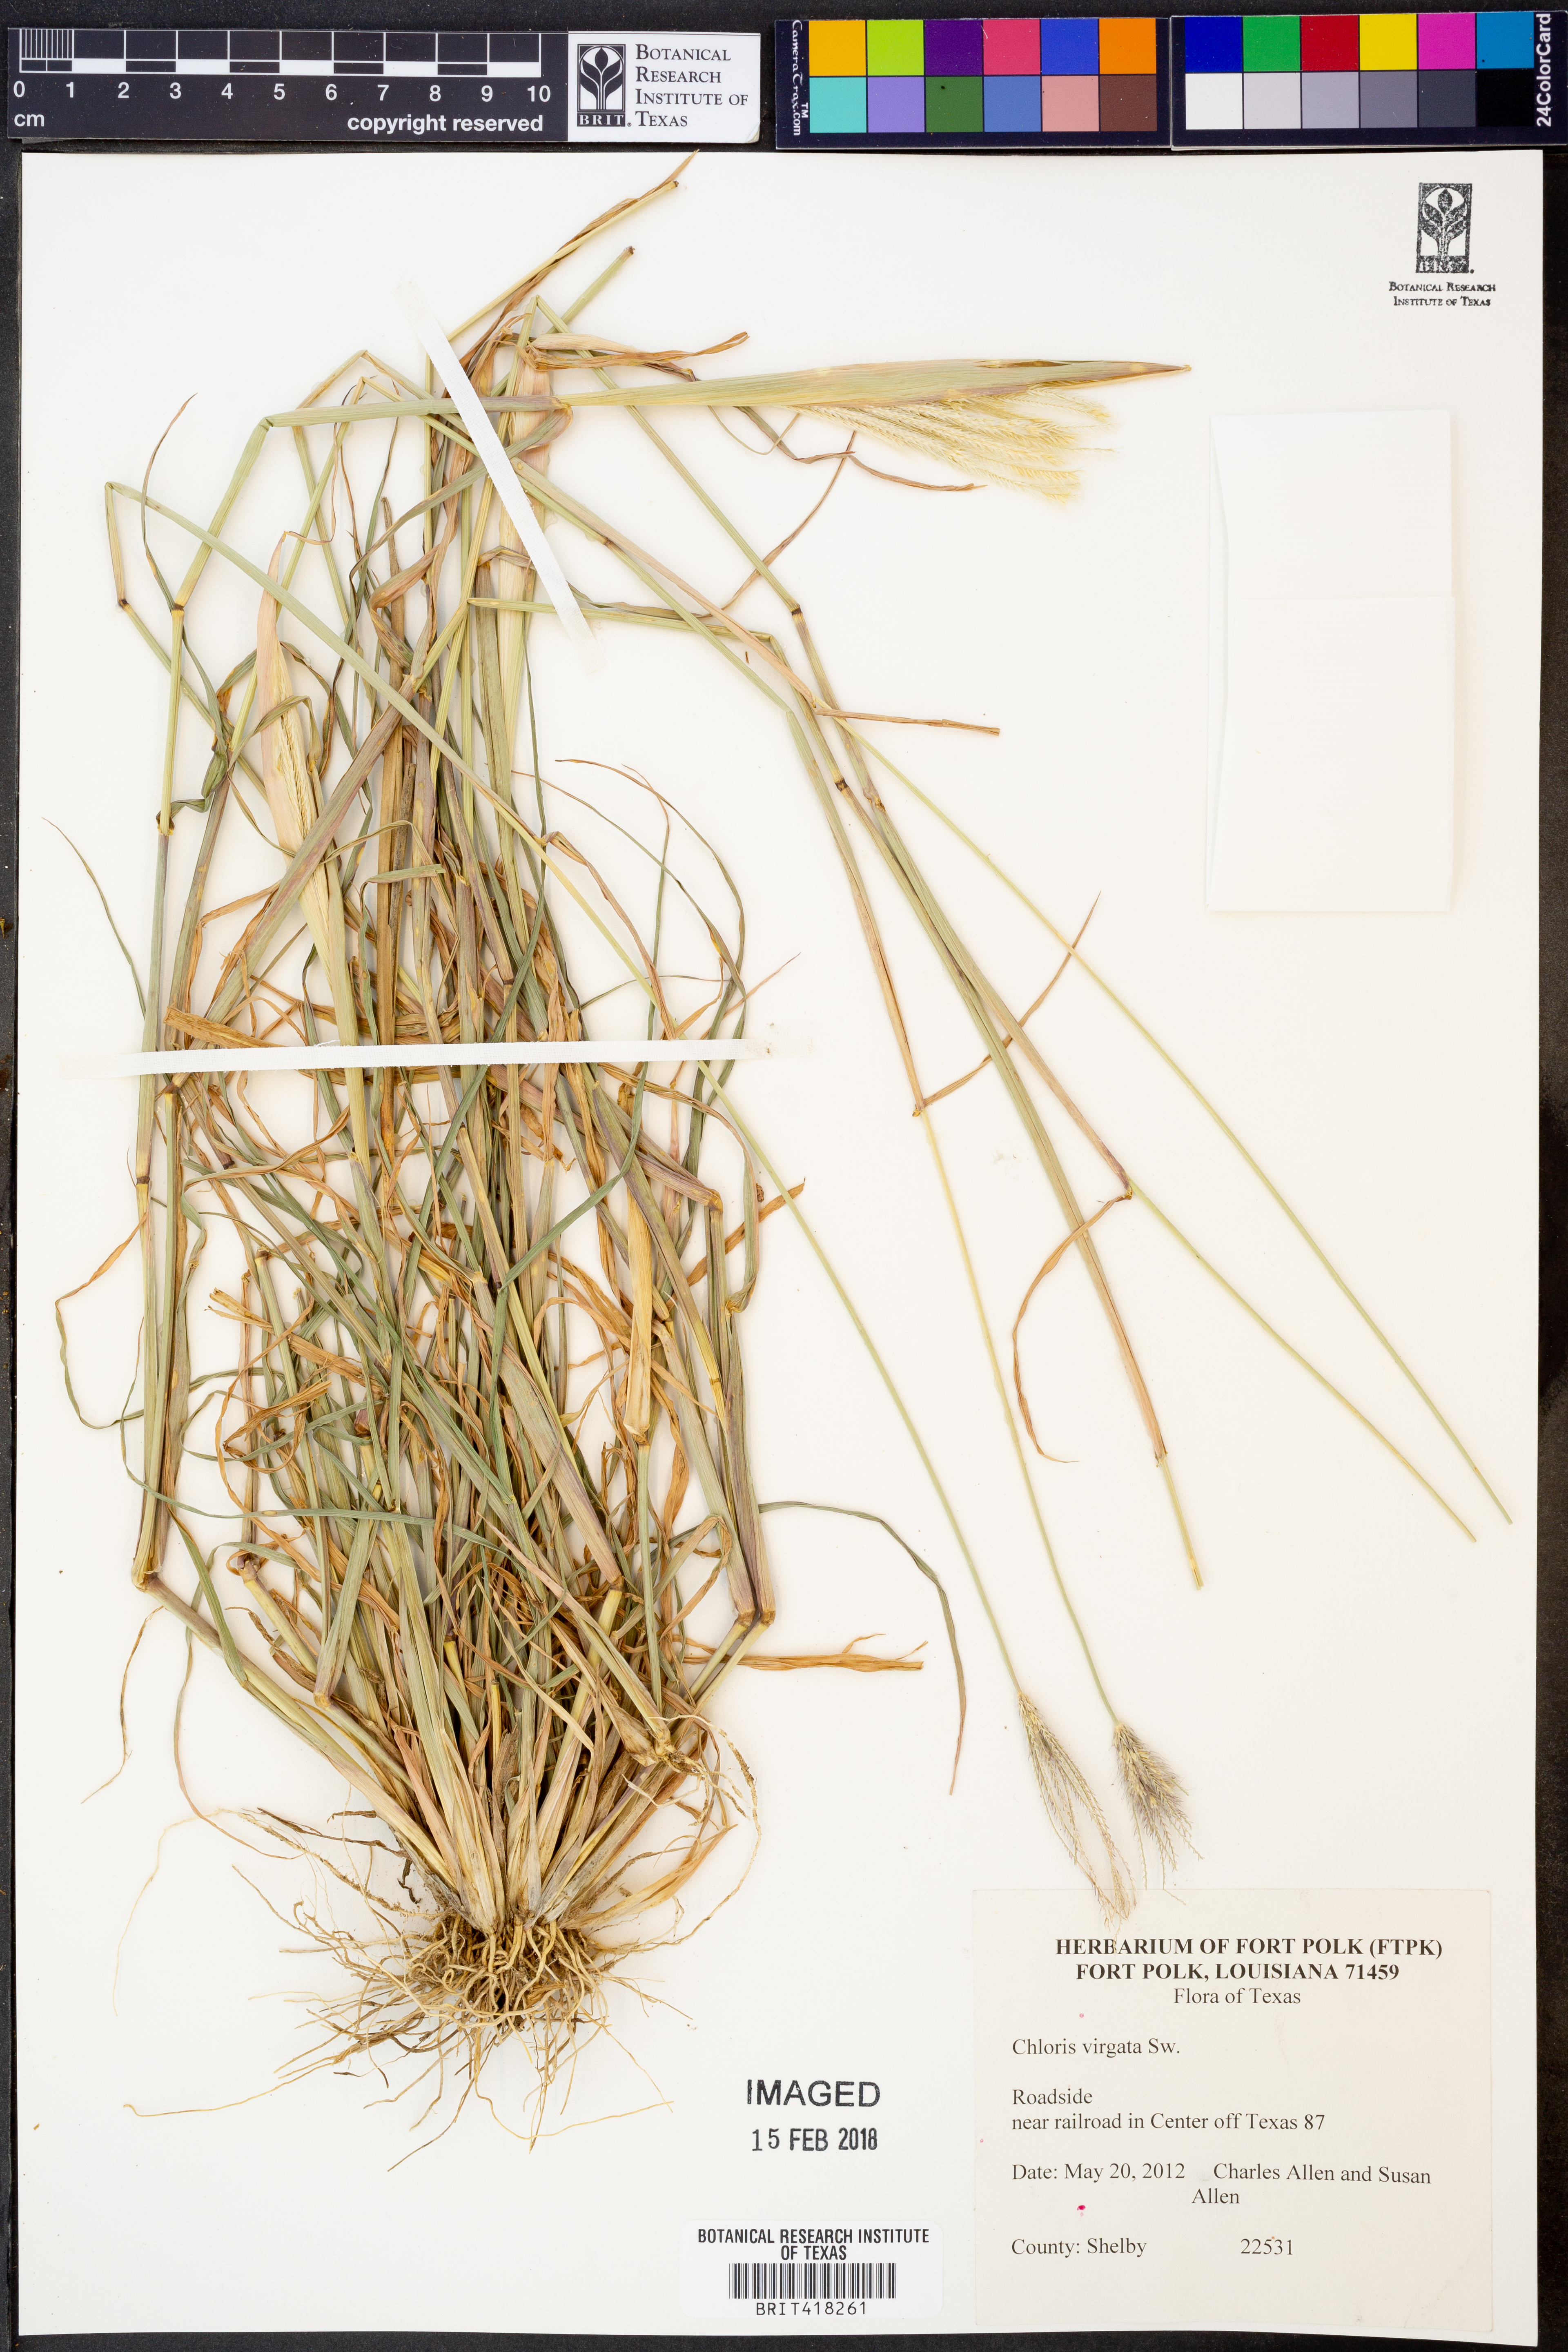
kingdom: Plantae
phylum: Tracheophyta
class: Liliopsida
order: Poales
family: Poaceae
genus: Chloris
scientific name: Chloris virgata
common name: Feathery rhodes-grass
